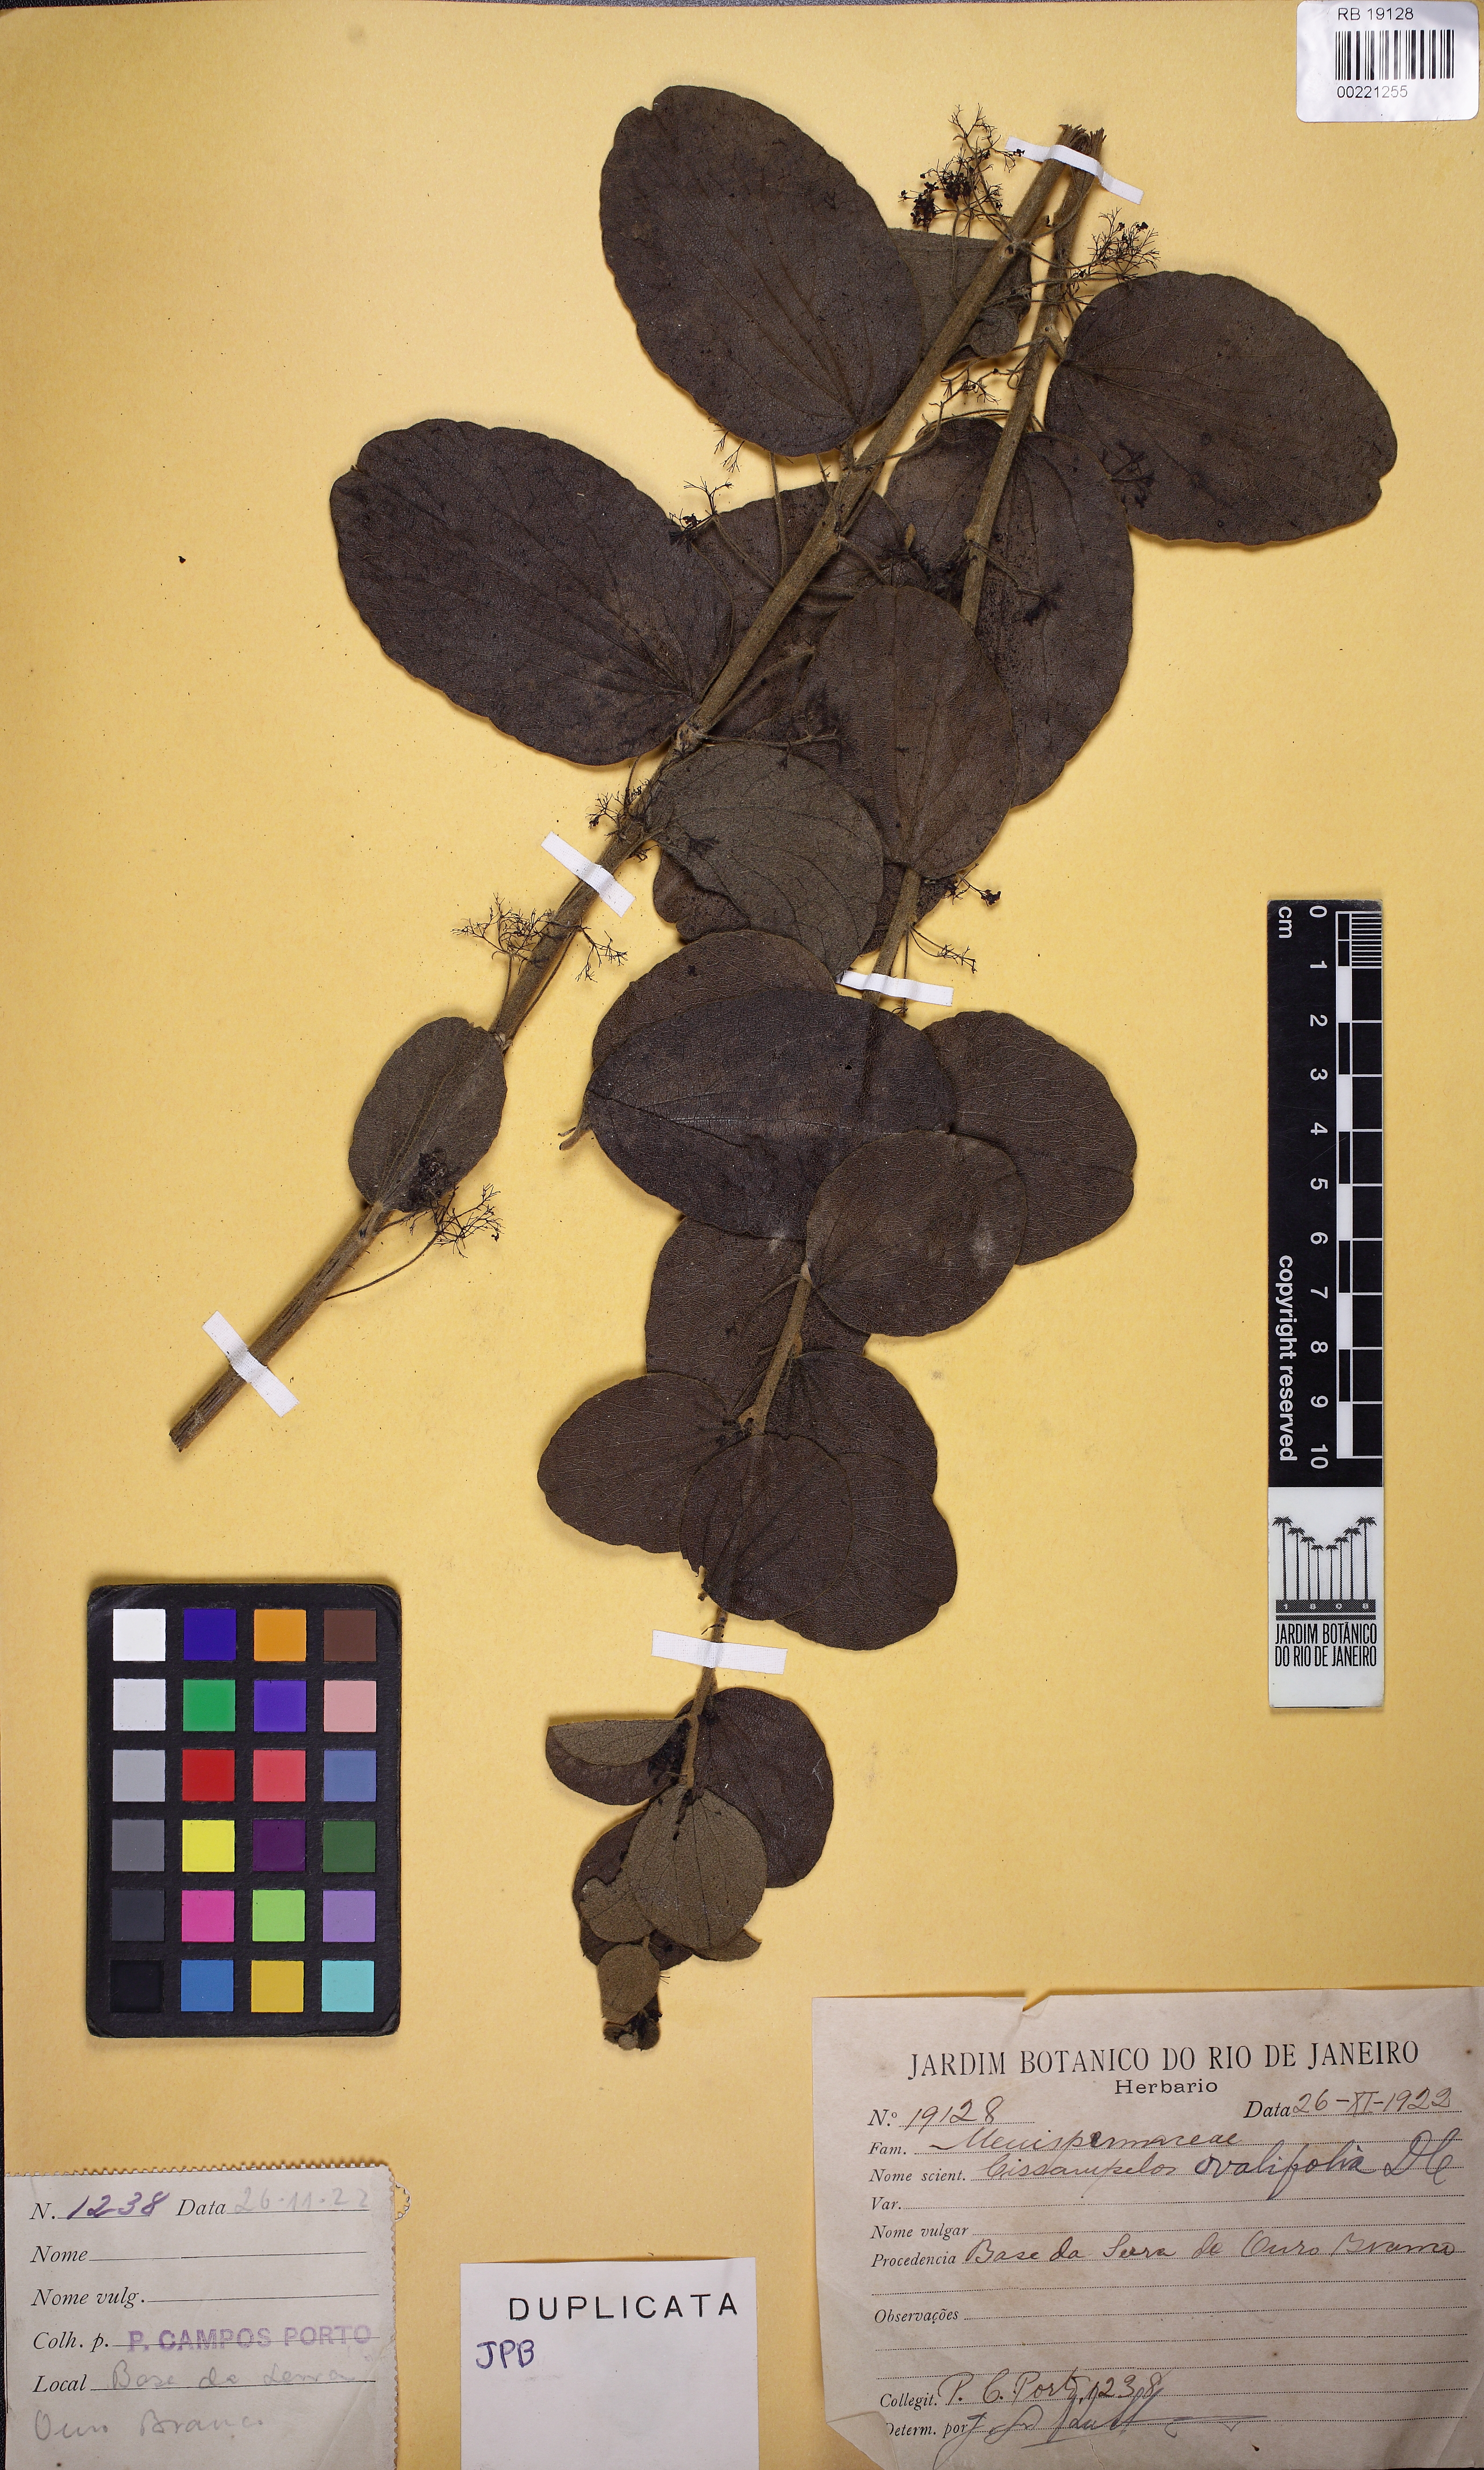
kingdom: Plantae
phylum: Tracheophyta
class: Magnoliopsida
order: Ranunculales
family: Menispermaceae
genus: Cissampelos
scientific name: Cissampelos ovalifolia
